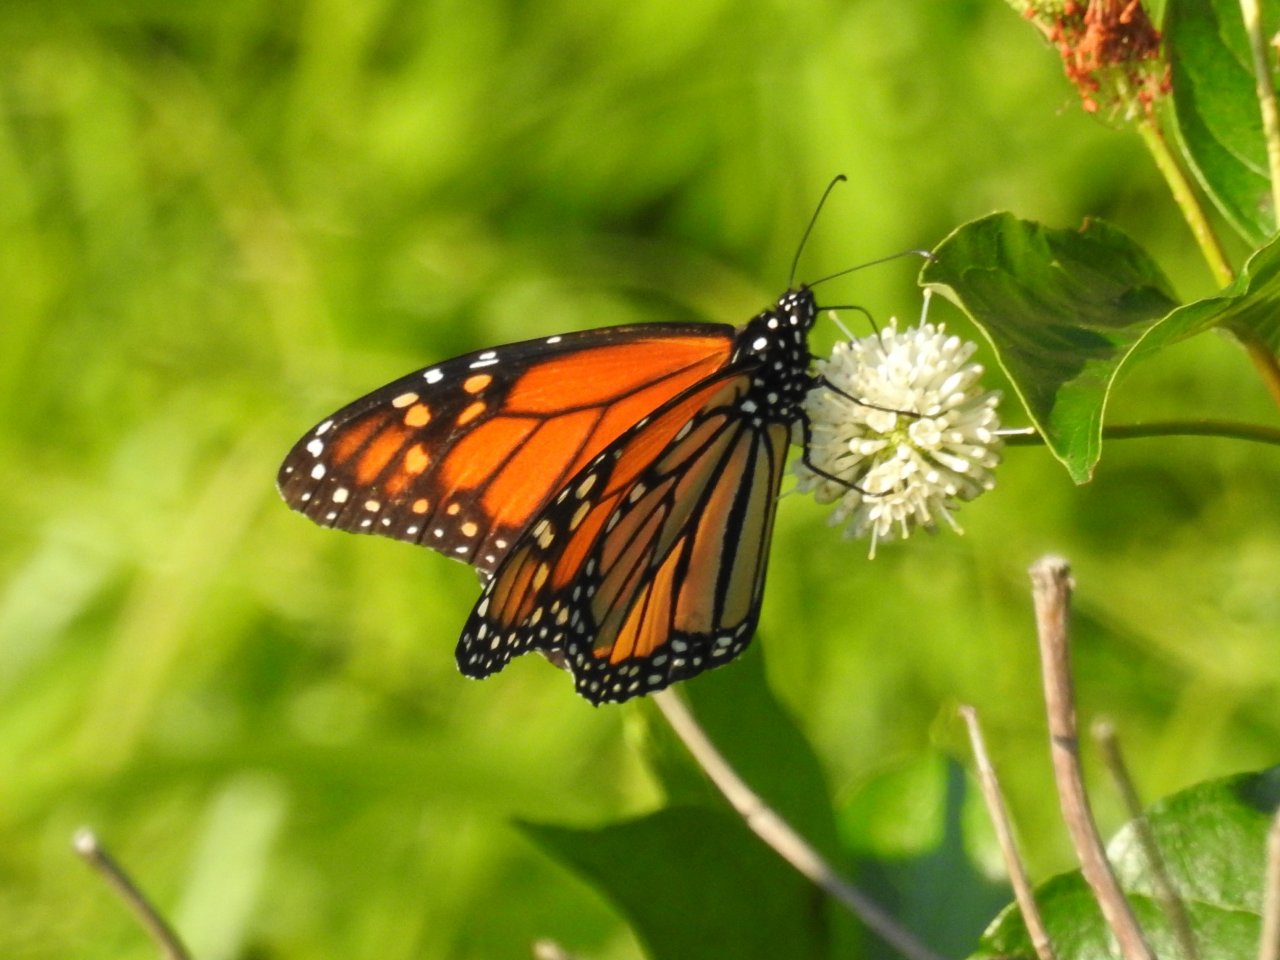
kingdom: Animalia
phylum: Arthropoda
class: Insecta
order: Lepidoptera
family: Nymphalidae
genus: Danaus
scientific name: Danaus plexippus
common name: Monarch
